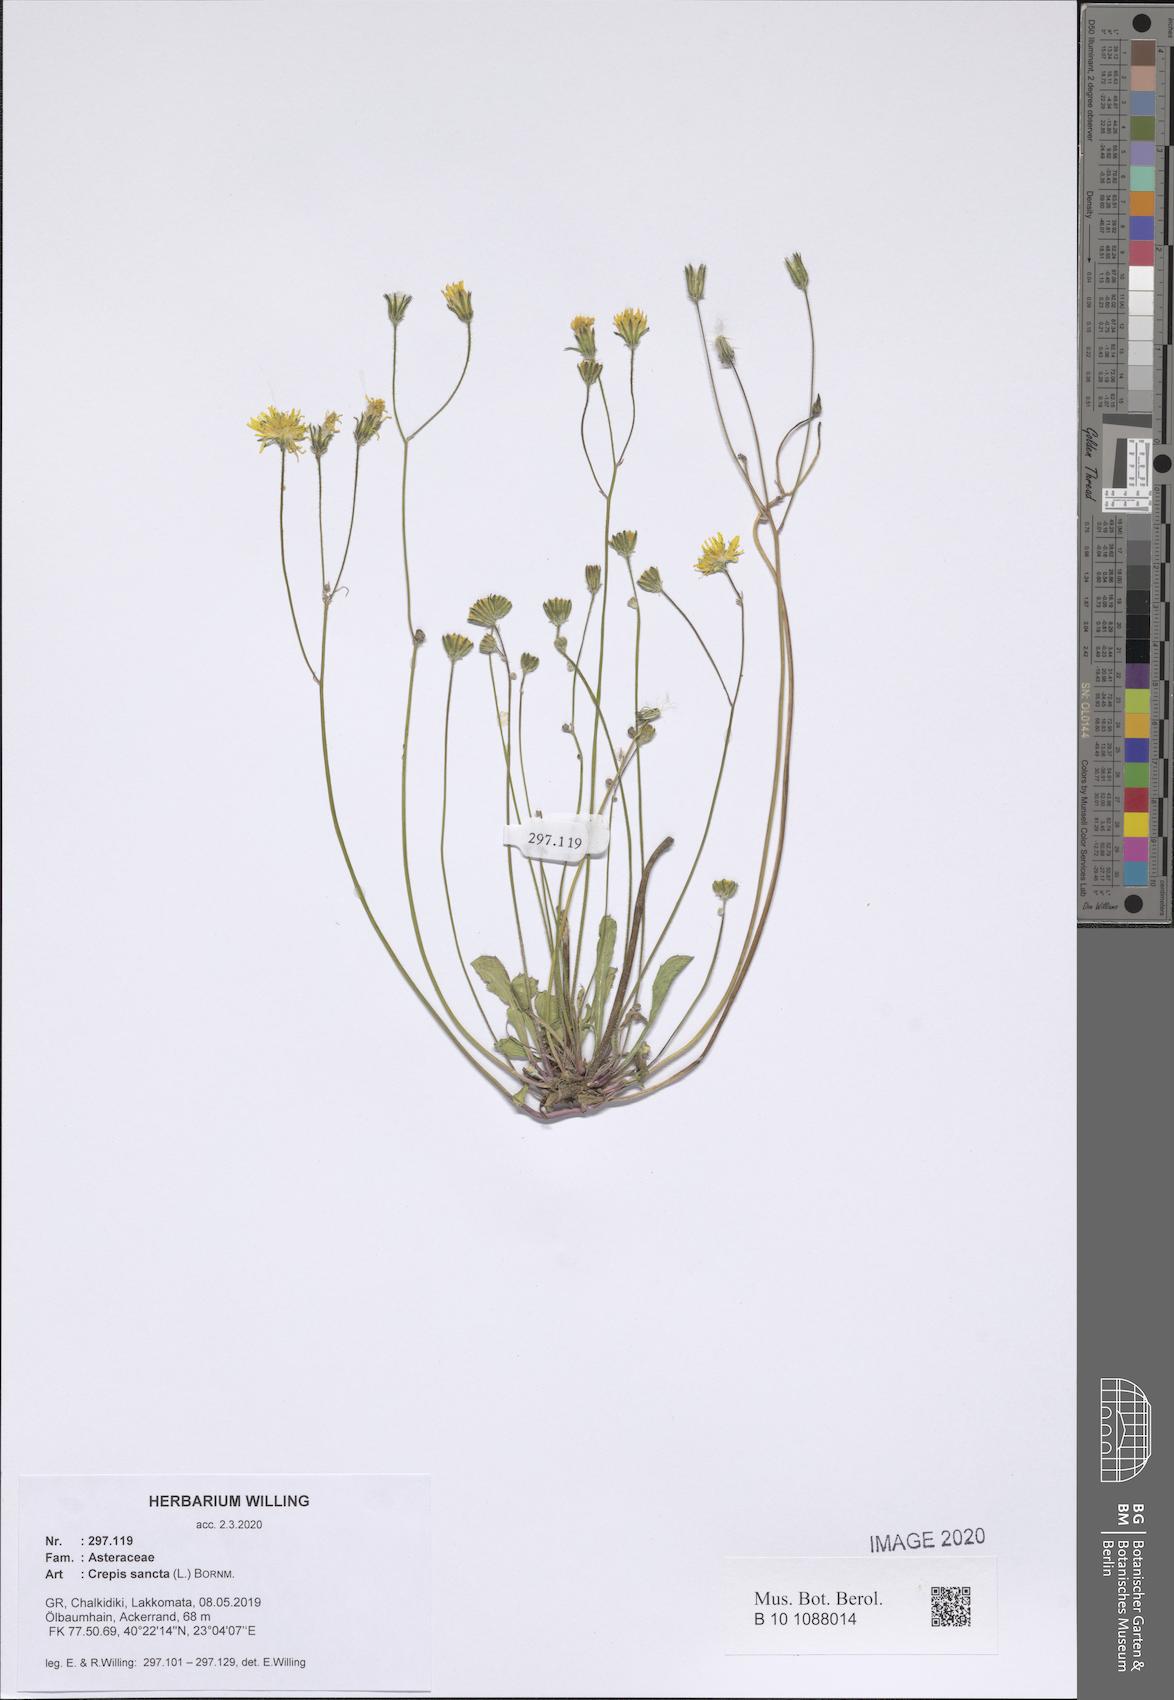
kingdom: Plantae
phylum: Tracheophyta
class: Magnoliopsida
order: Asterales
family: Asteraceae
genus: Crepis
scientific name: Crepis sancta
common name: Hawk's-beard
